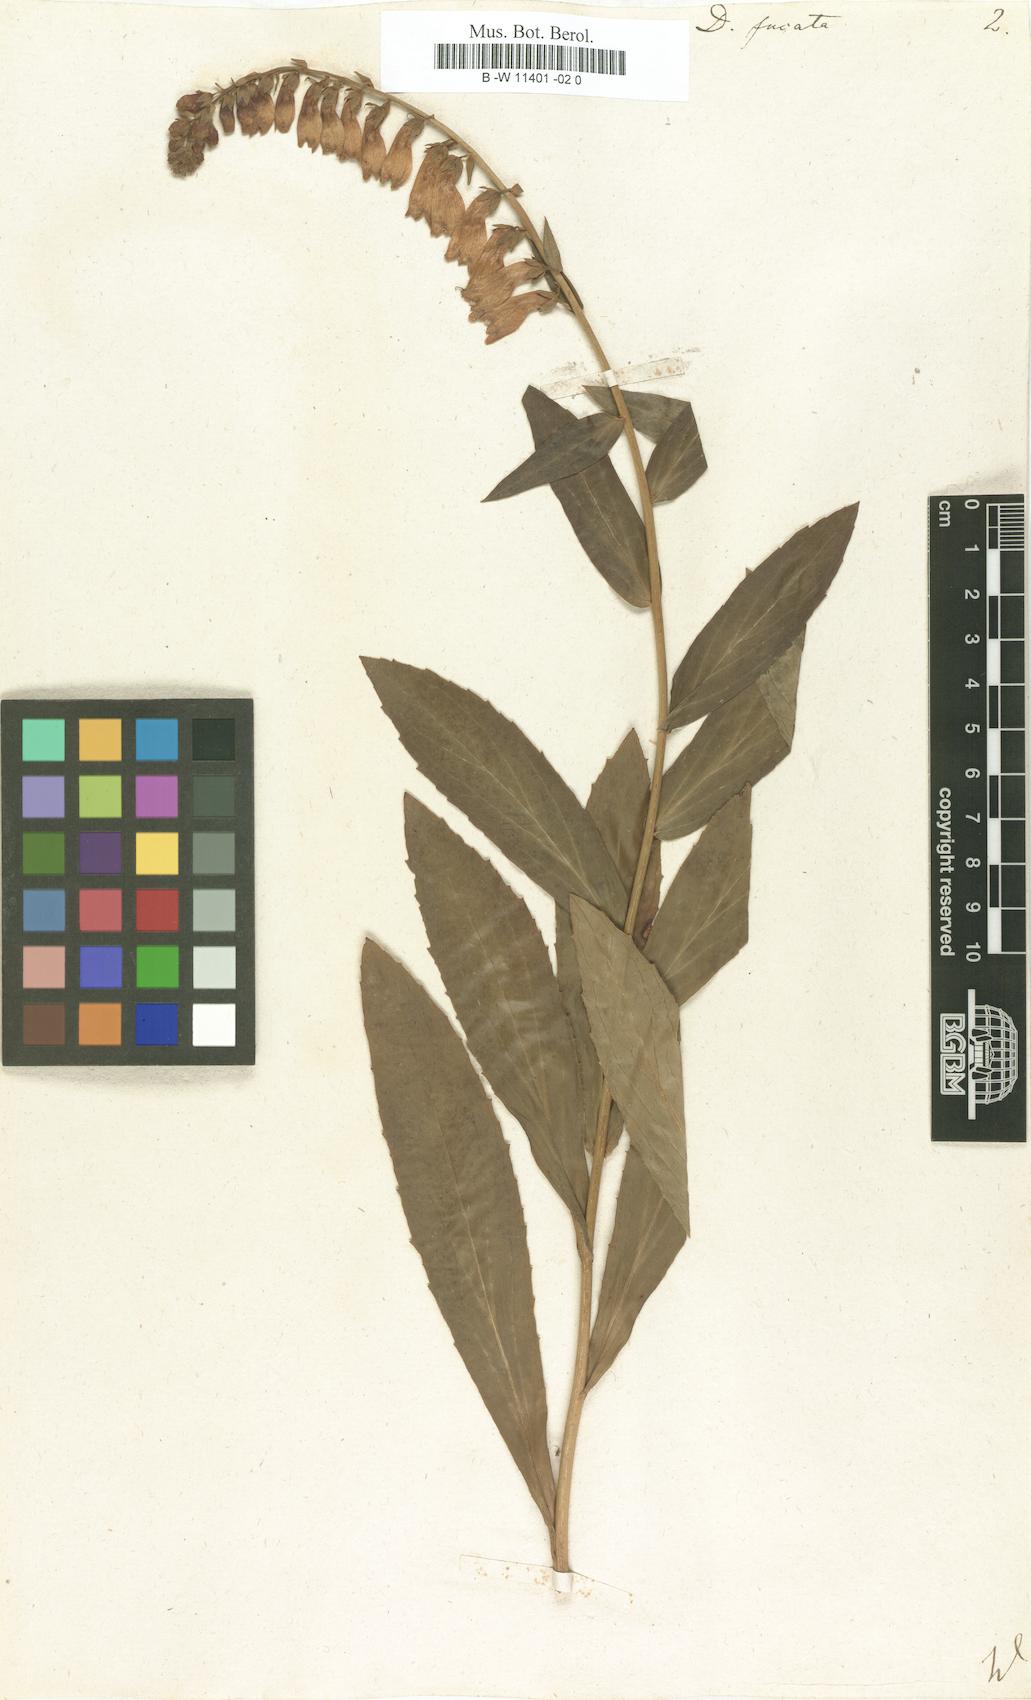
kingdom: Plantae
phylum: Tracheophyta
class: Magnoliopsida
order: Lamiales
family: Plantaginaceae
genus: Digitalis
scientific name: Digitalis fucata
